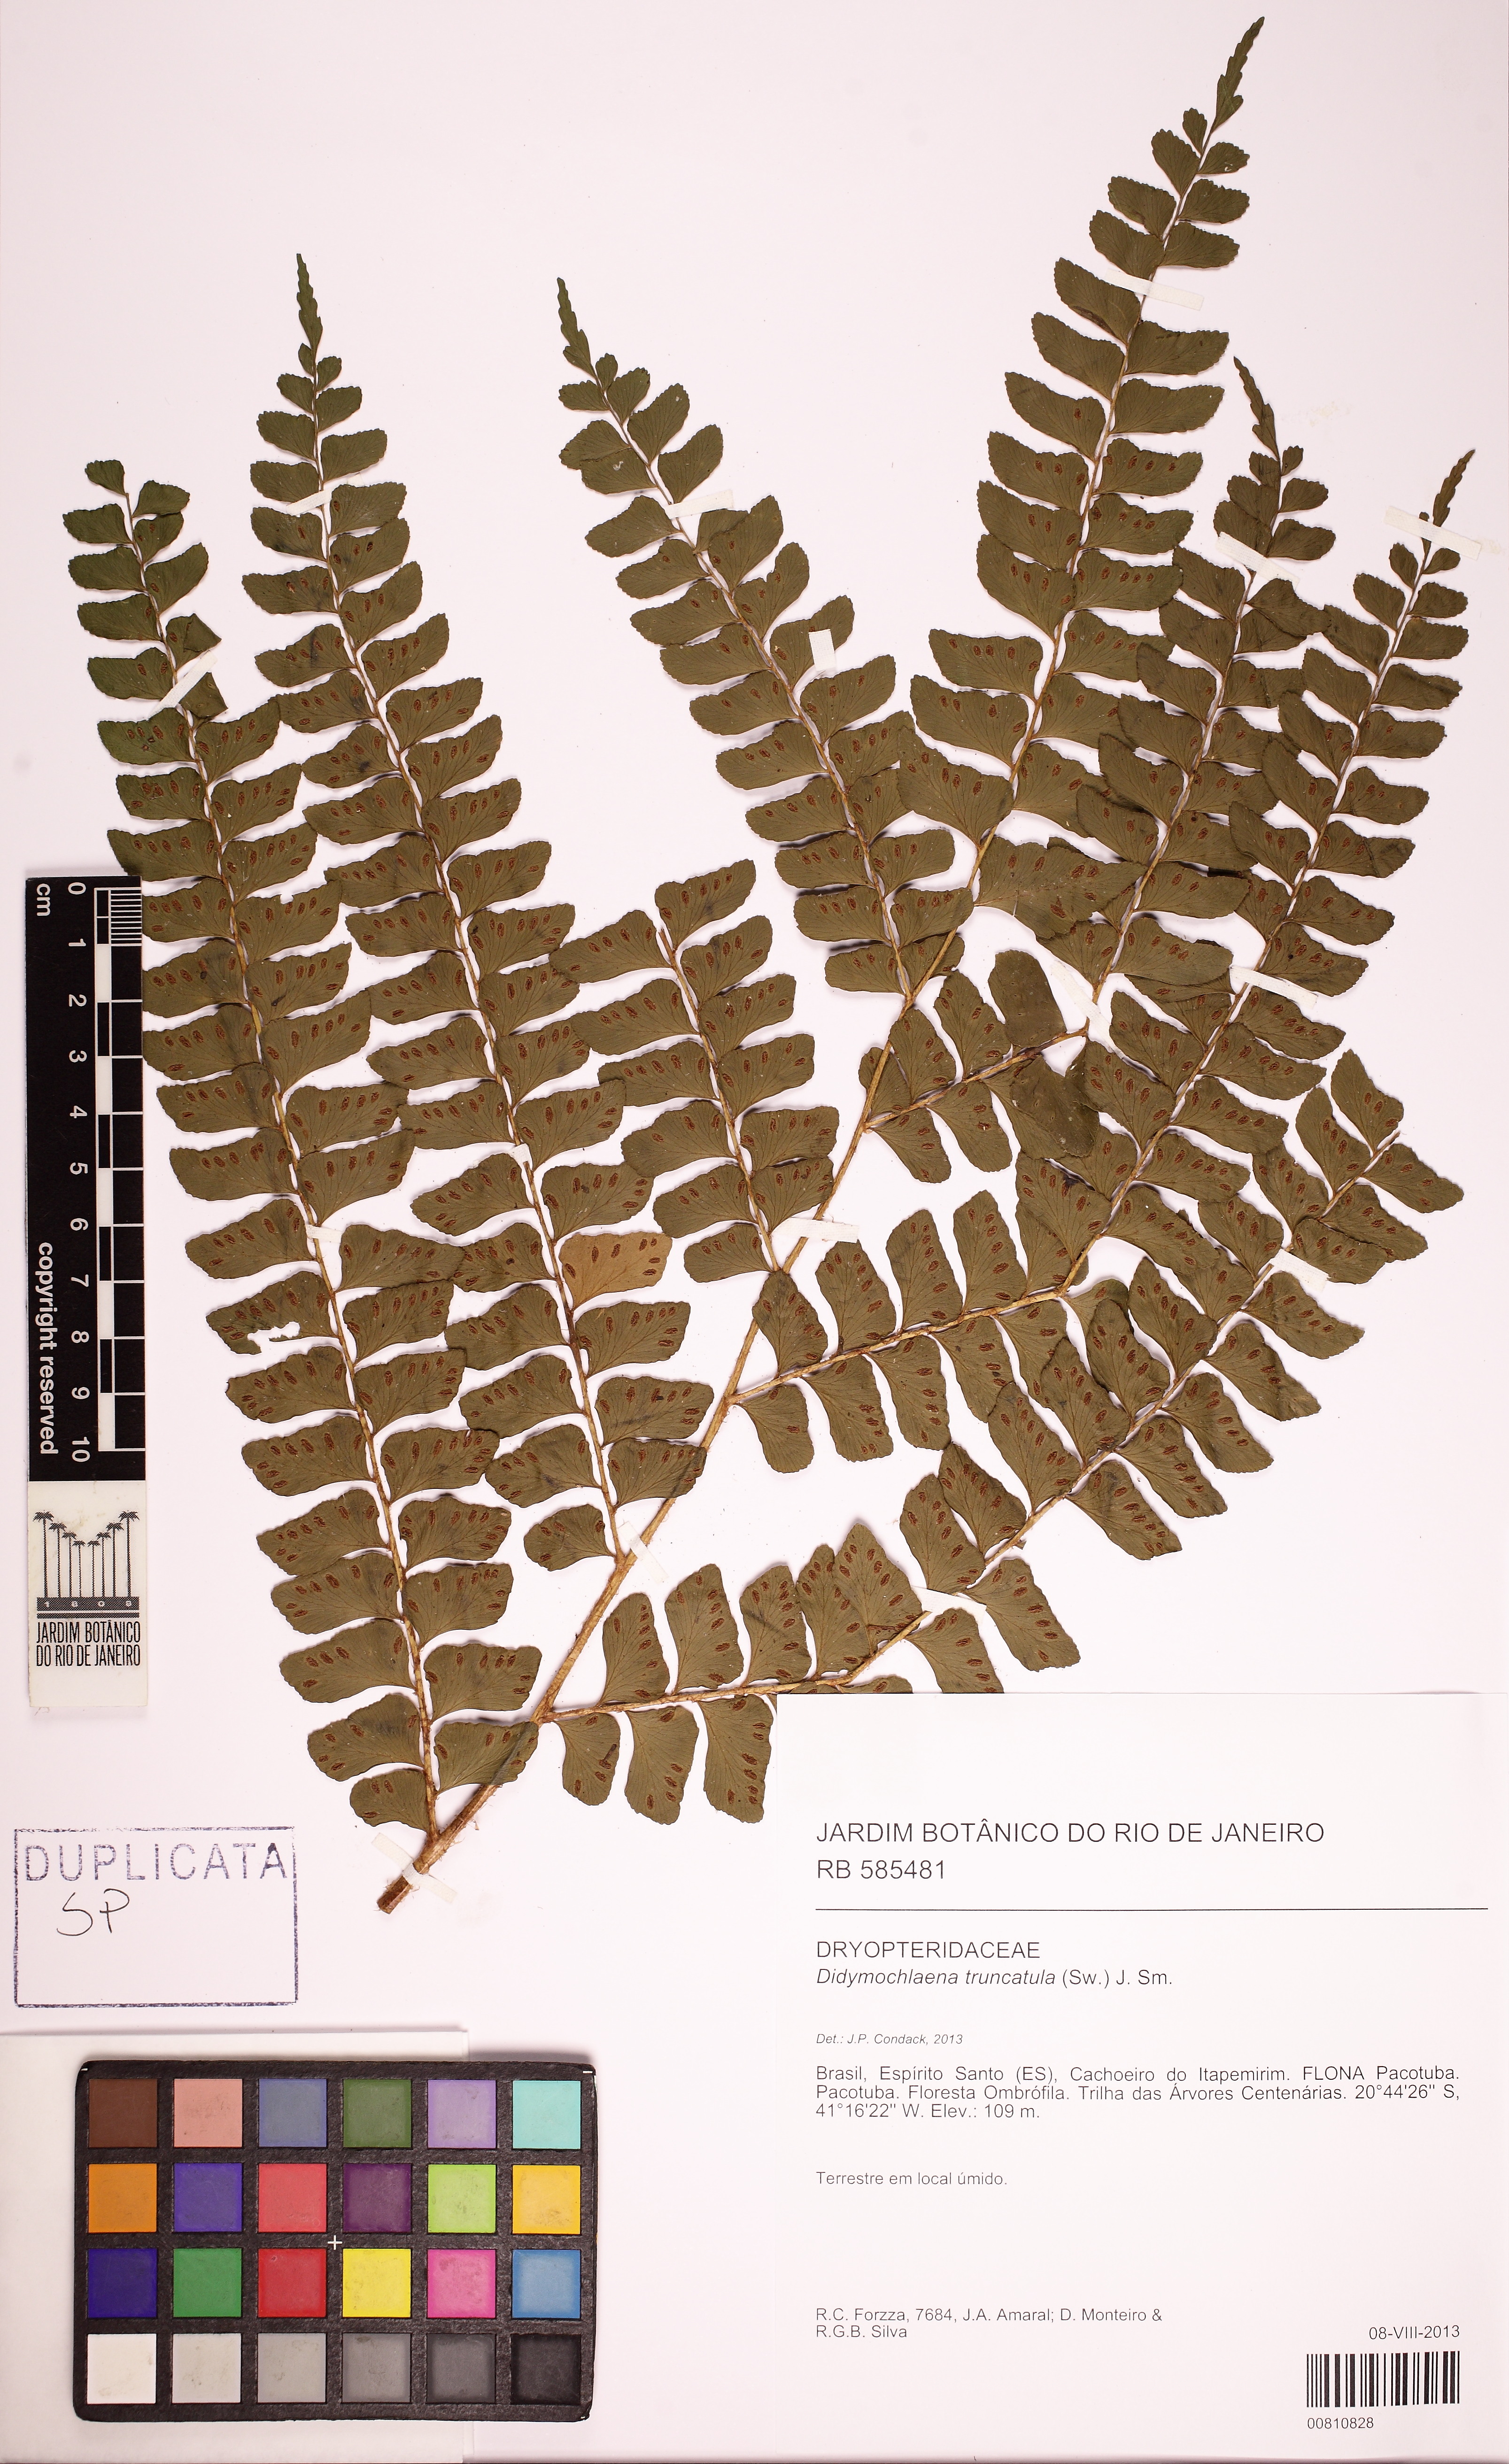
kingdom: Plantae
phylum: Tracheophyta
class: Polypodiopsida
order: Polypodiales
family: Didymochlaenaceae
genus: Didymochlaena
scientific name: Didymochlaena truncatula
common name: Mahogany fern
